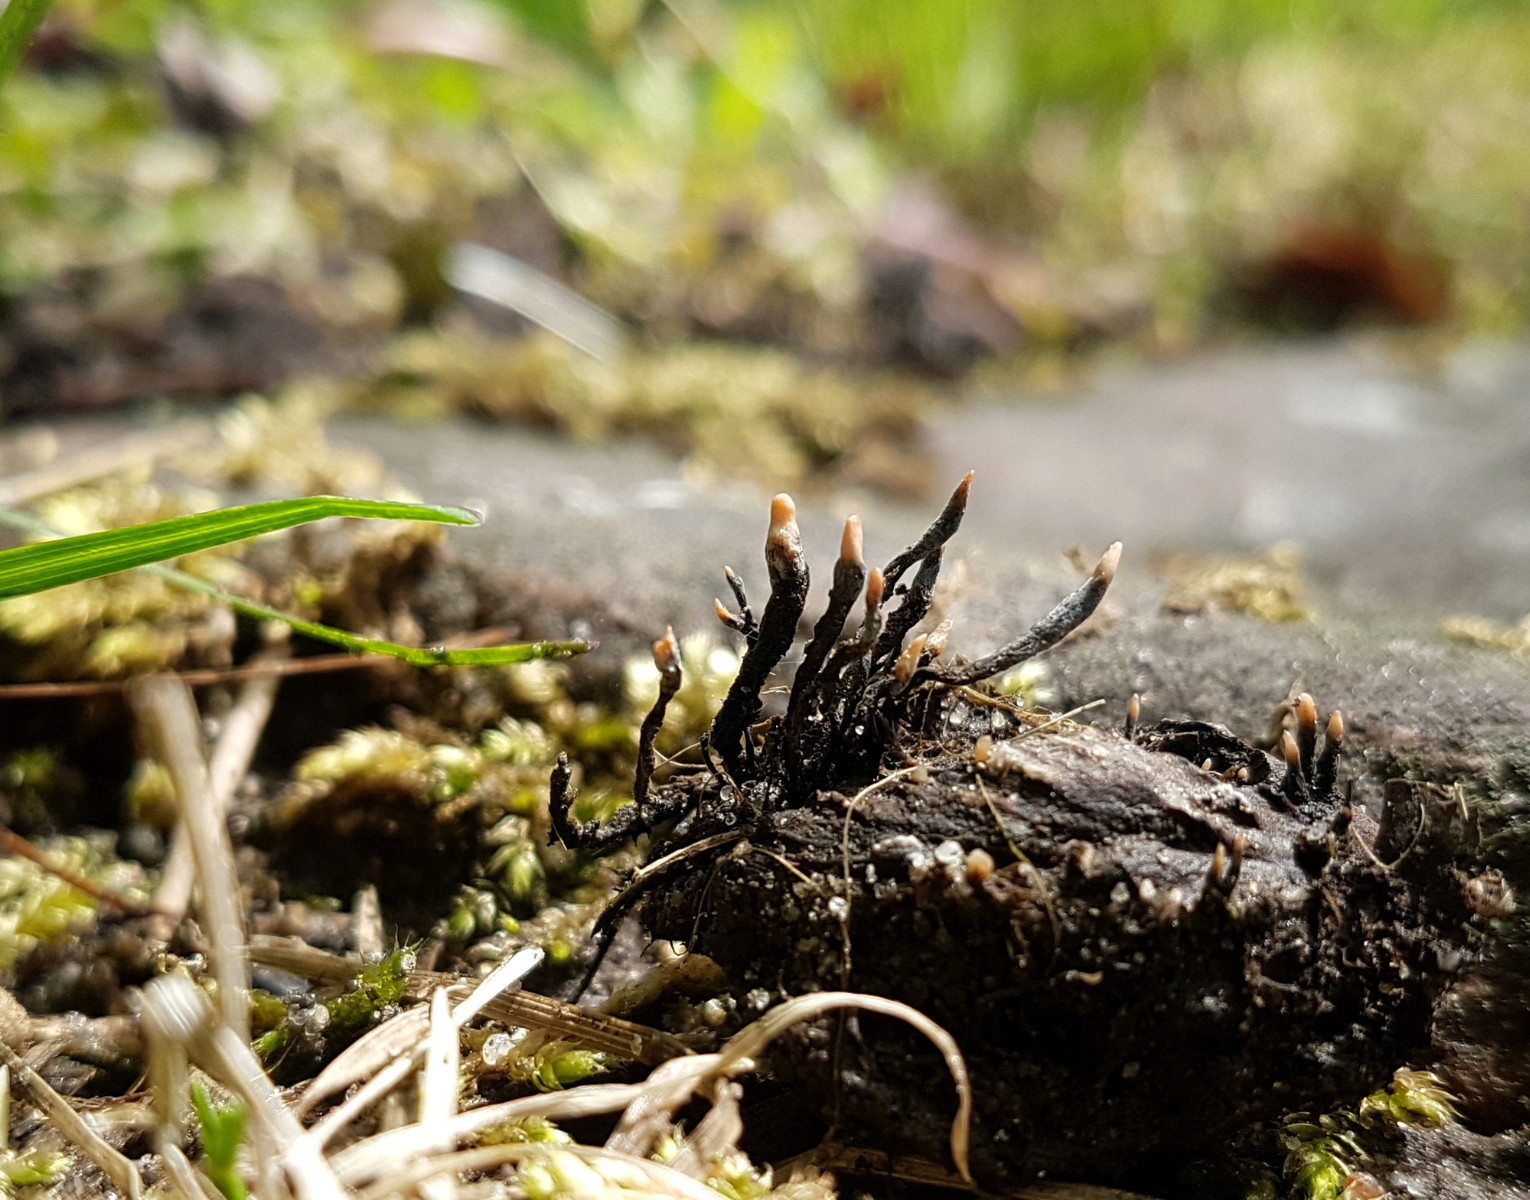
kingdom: Fungi
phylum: Ascomycota
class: Sordariomycetes
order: Xylariales
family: Xylariaceae
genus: Xylaria
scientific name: Xylaria carpophila
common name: bogskål-stødsvamp
